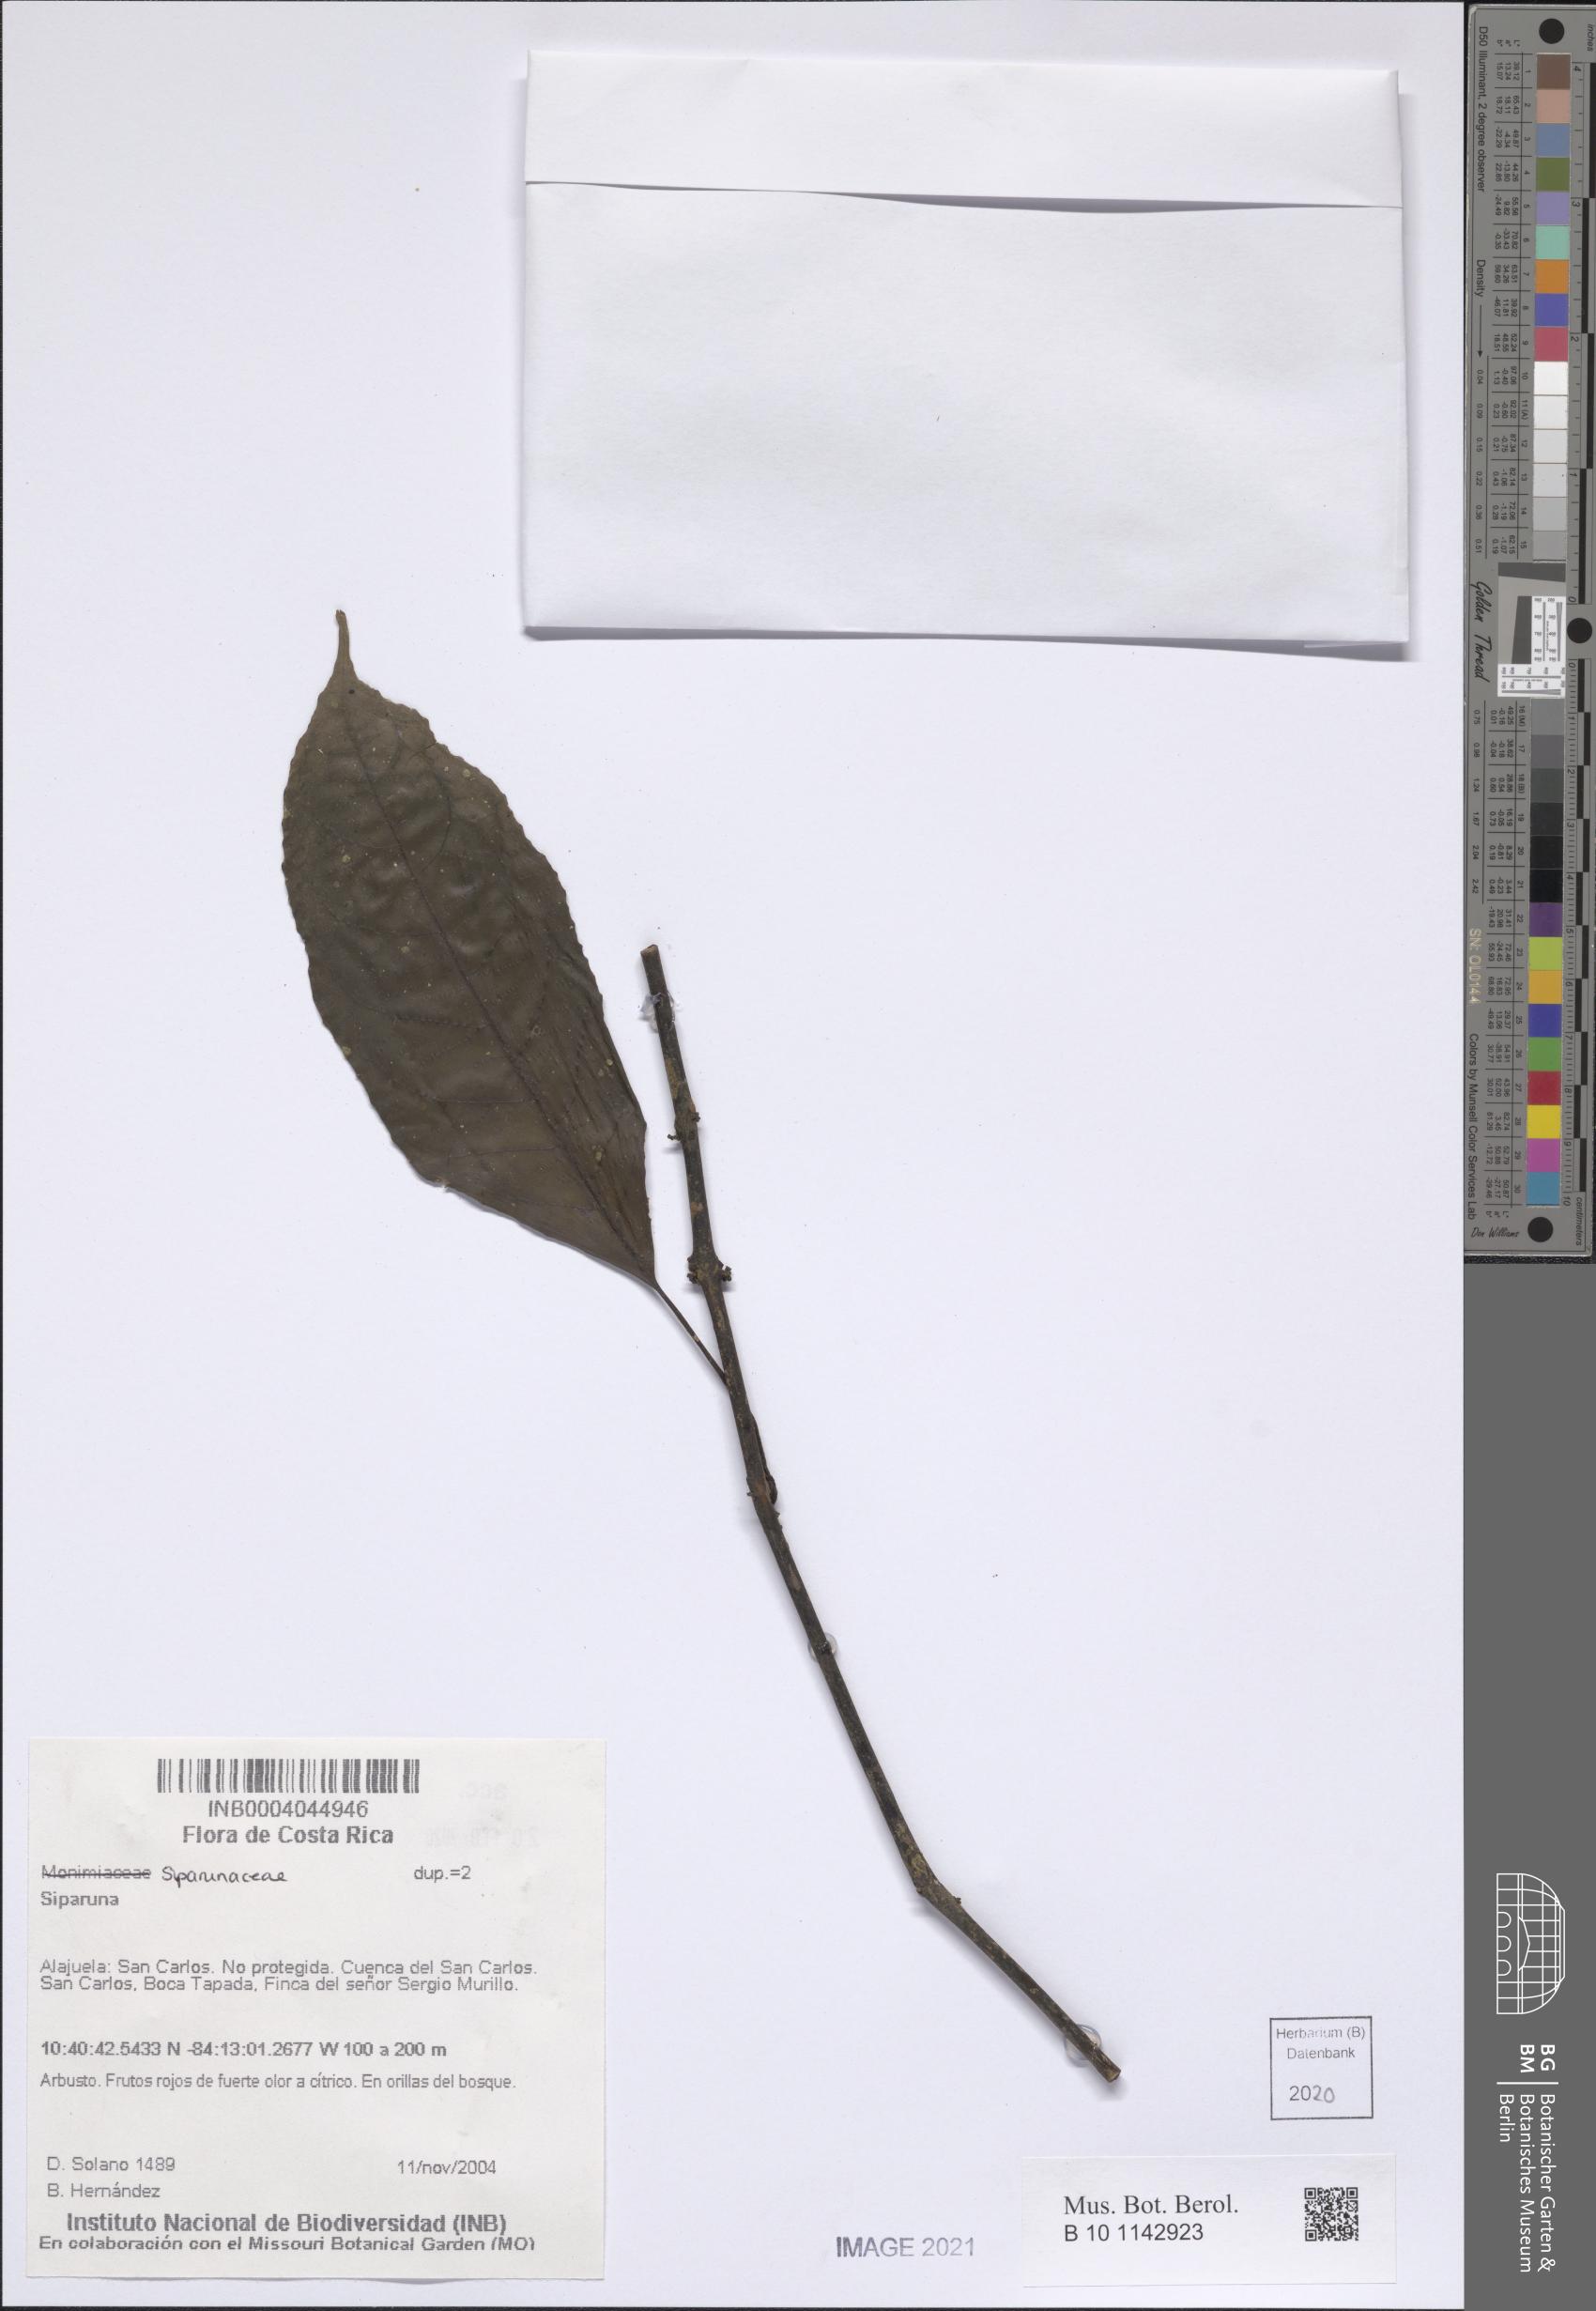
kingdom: Plantae
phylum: Tracheophyta
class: Magnoliopsida
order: Laurales
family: Siparunaceae
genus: Siparuna
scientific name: Siparuna
